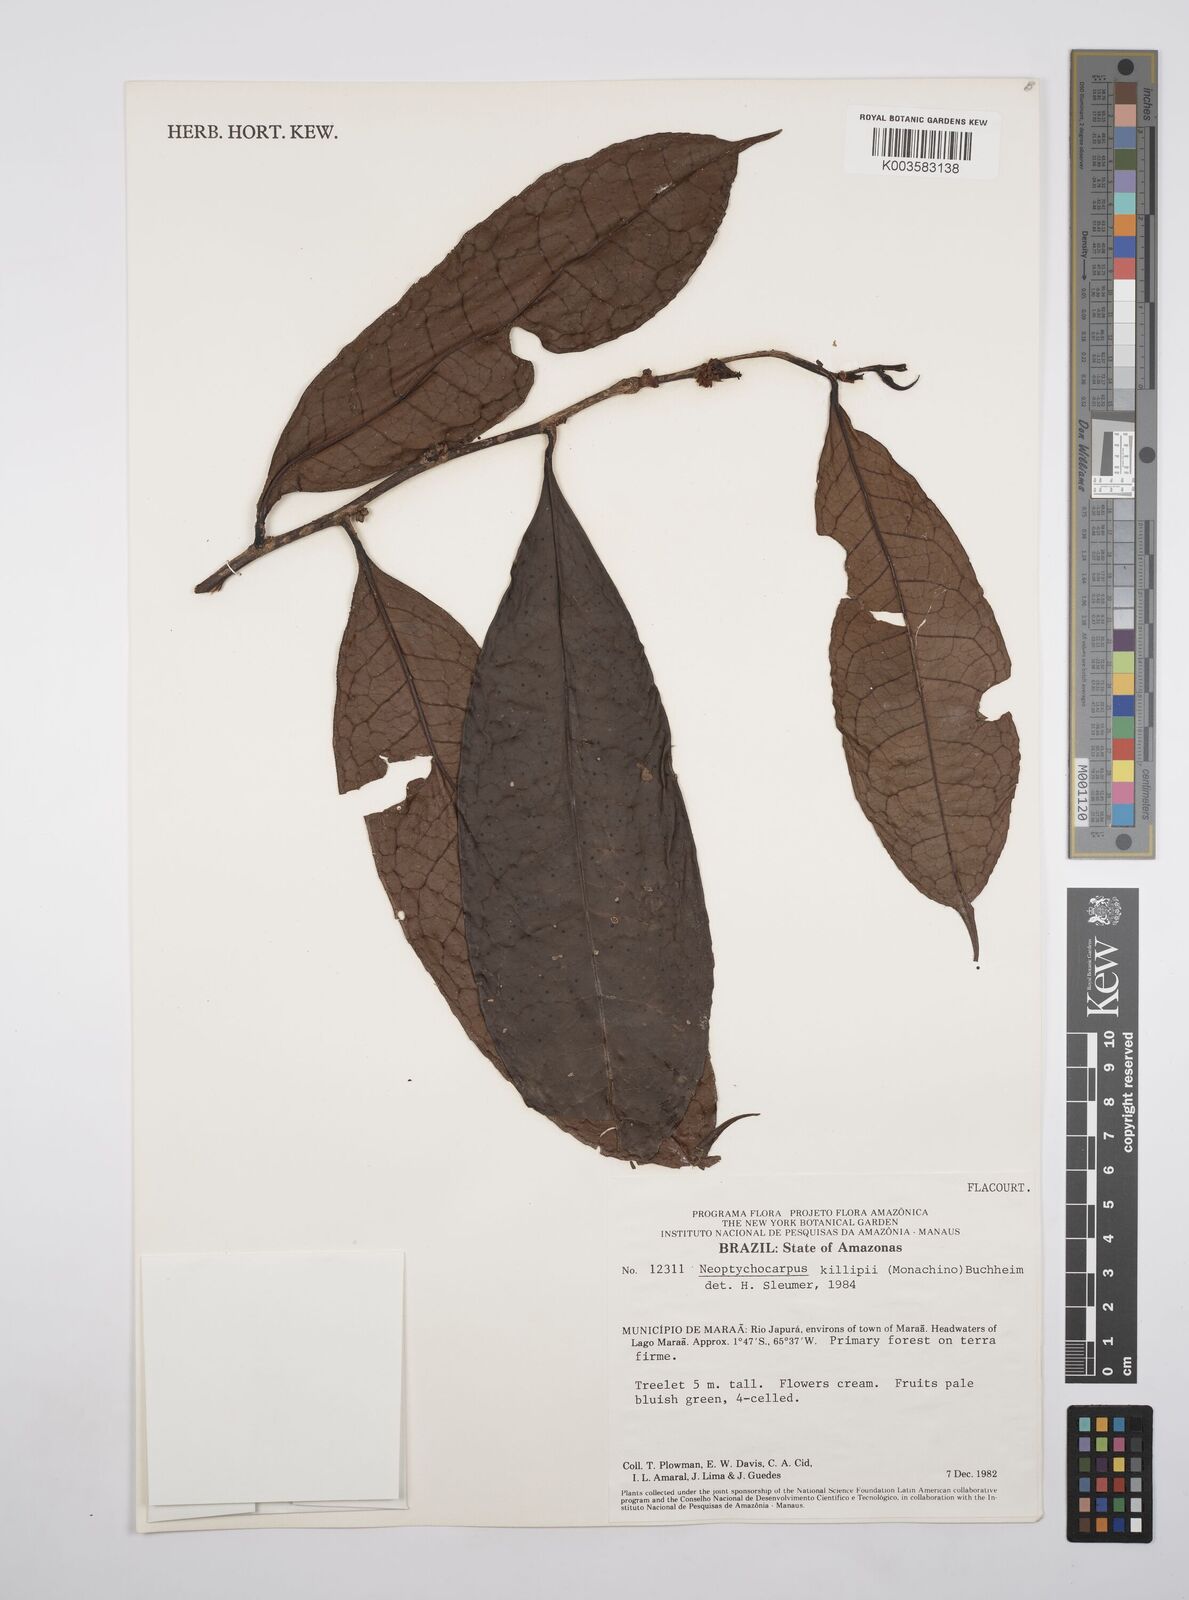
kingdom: Plantae
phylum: Tracheophyta
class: Magnoliopsida
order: Malpighiales
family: Salicaceae
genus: Casearia
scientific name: Casearia killipii
